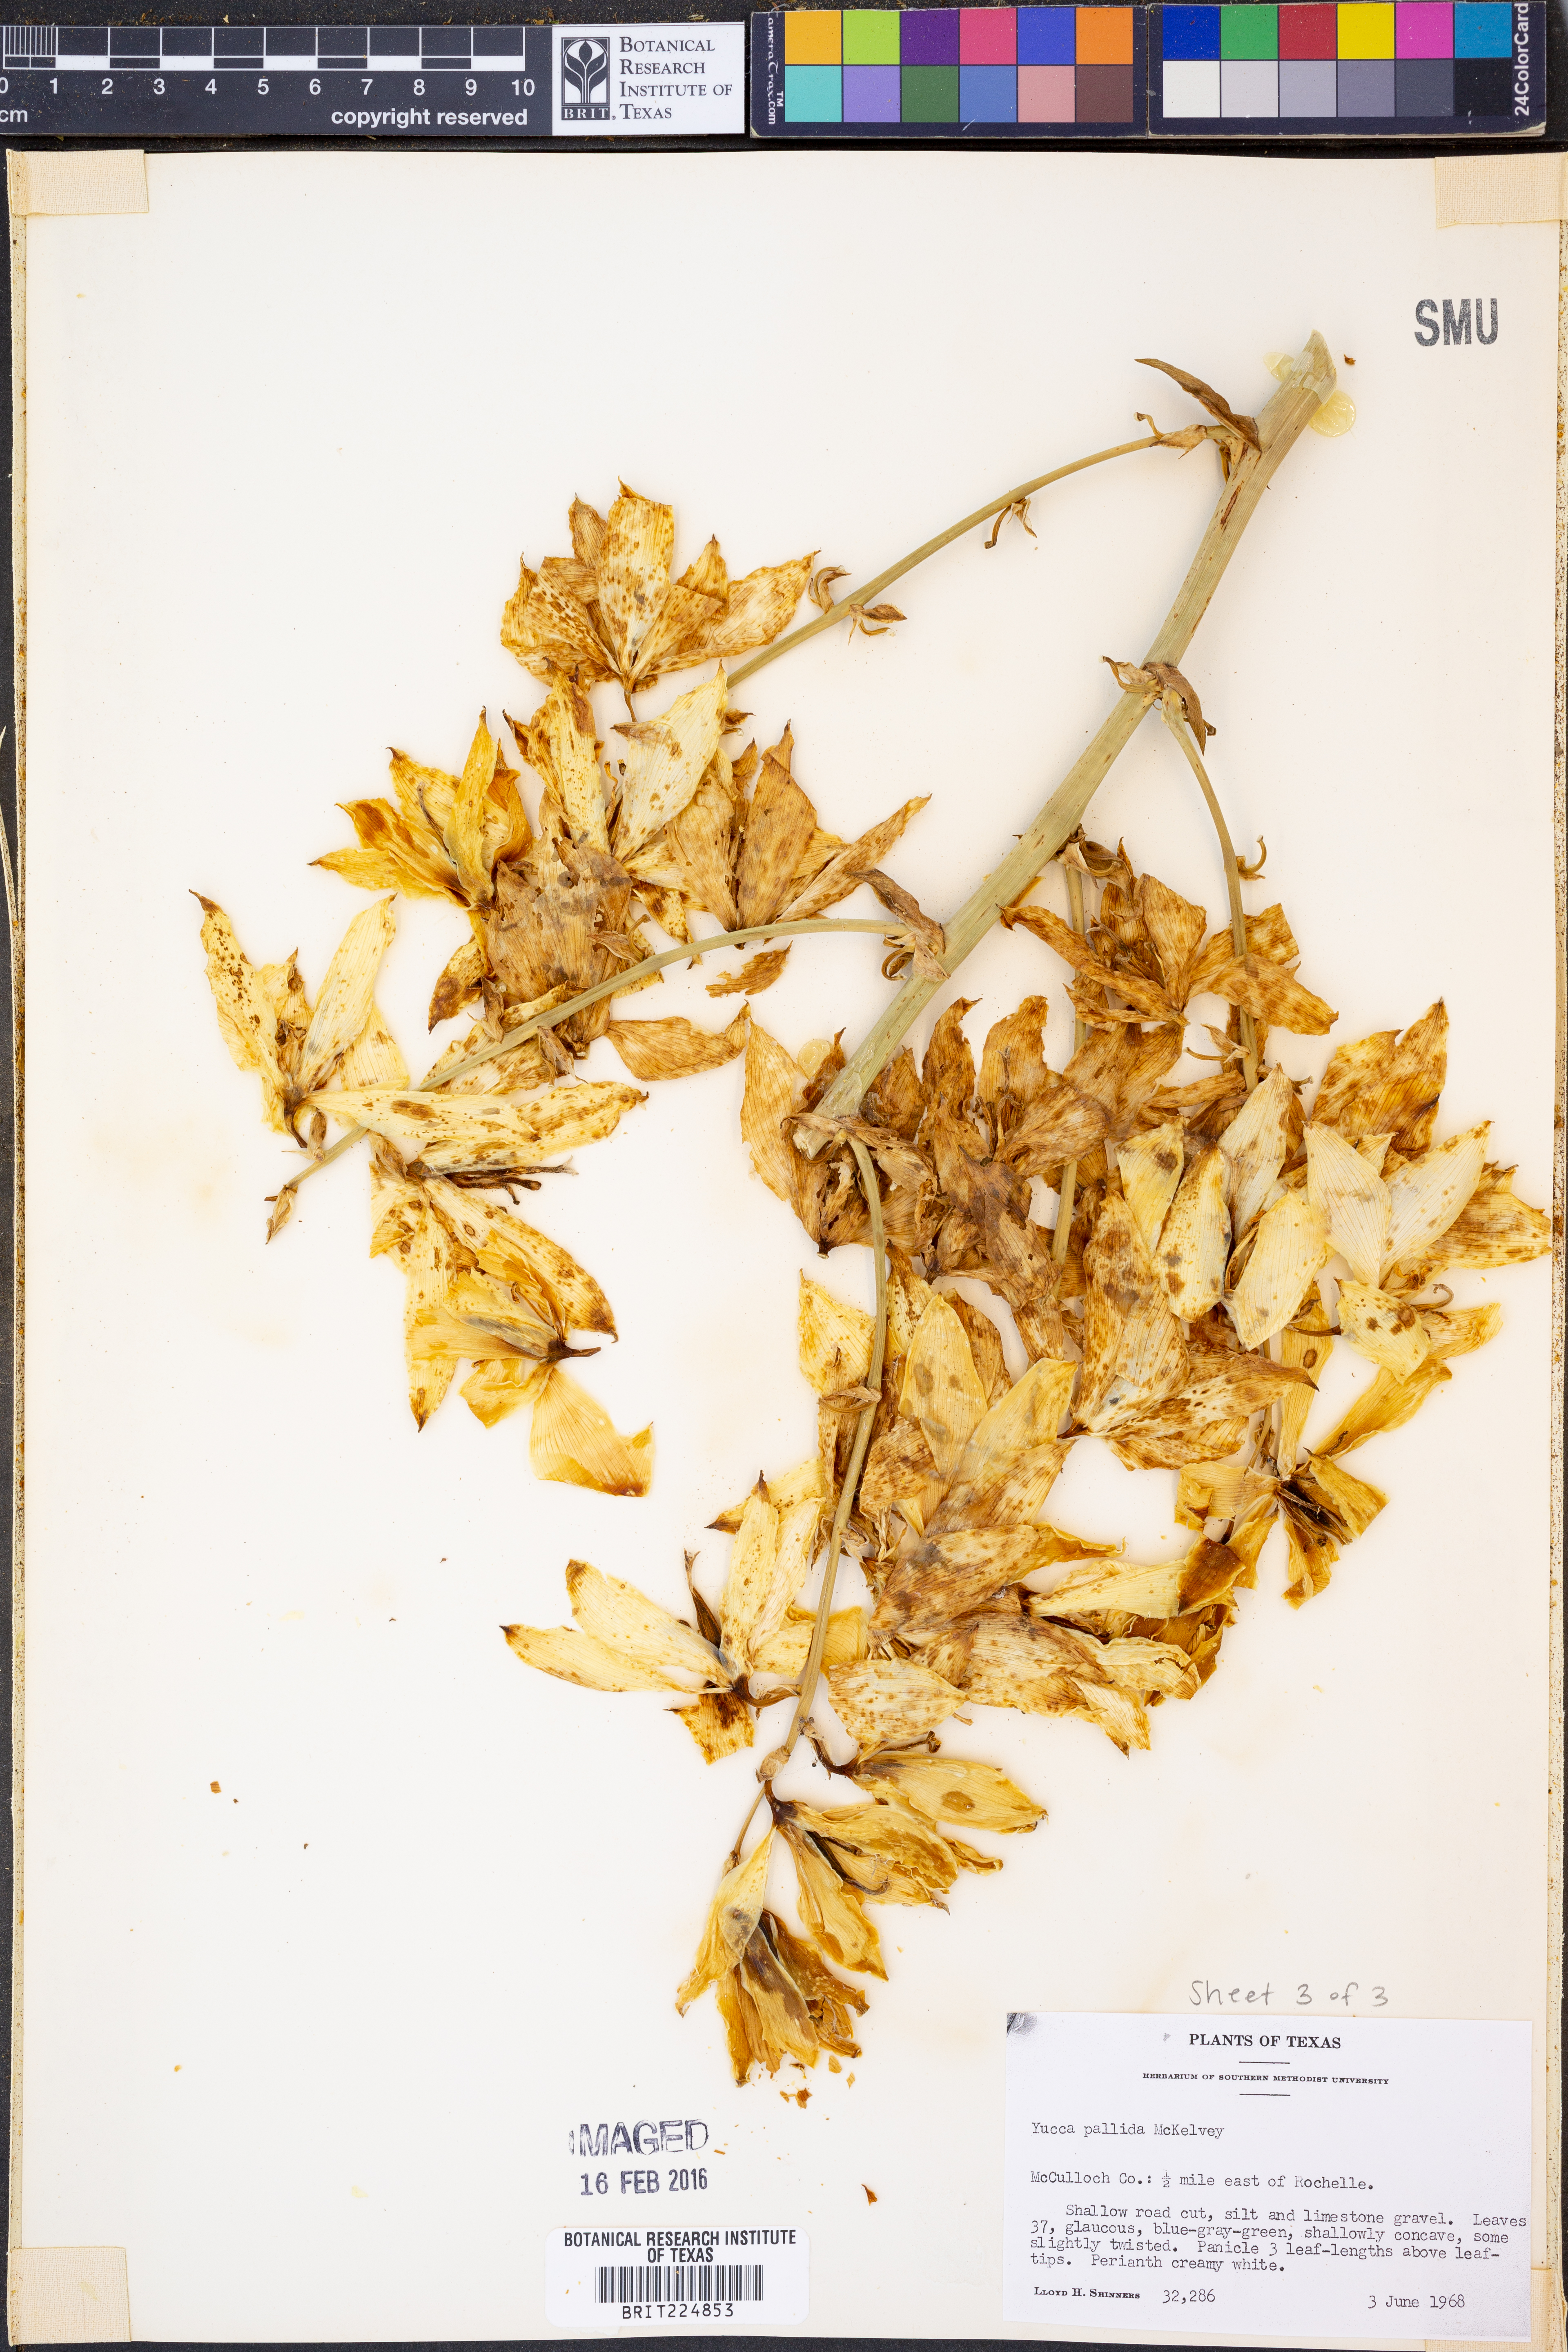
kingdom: Plantae
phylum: Tracheophyta
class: Liliopsida
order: Asparagales
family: Asparagaceae
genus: Yucca
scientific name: Yucca pallida
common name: Pale leaf yucca
